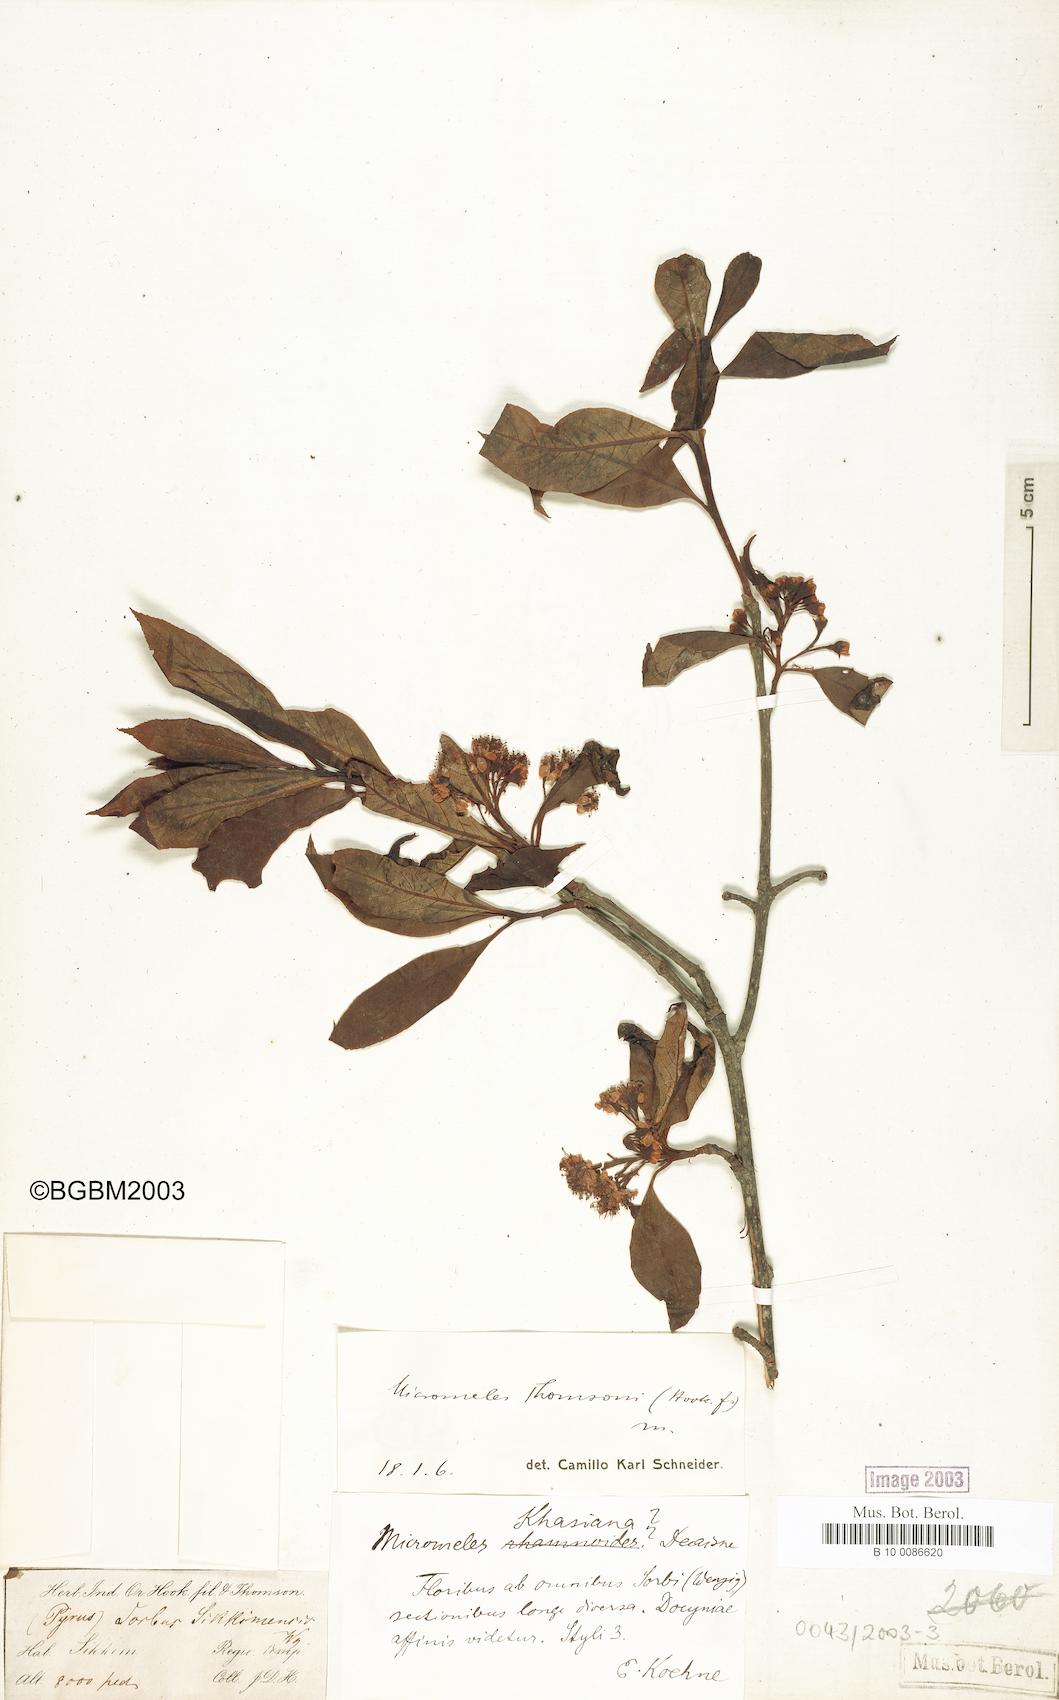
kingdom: Plantae
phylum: Tracheophyta
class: Magnoliopsida
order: Rosales
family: Rosaceae
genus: Sorbus
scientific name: Sorbus thomsonii
